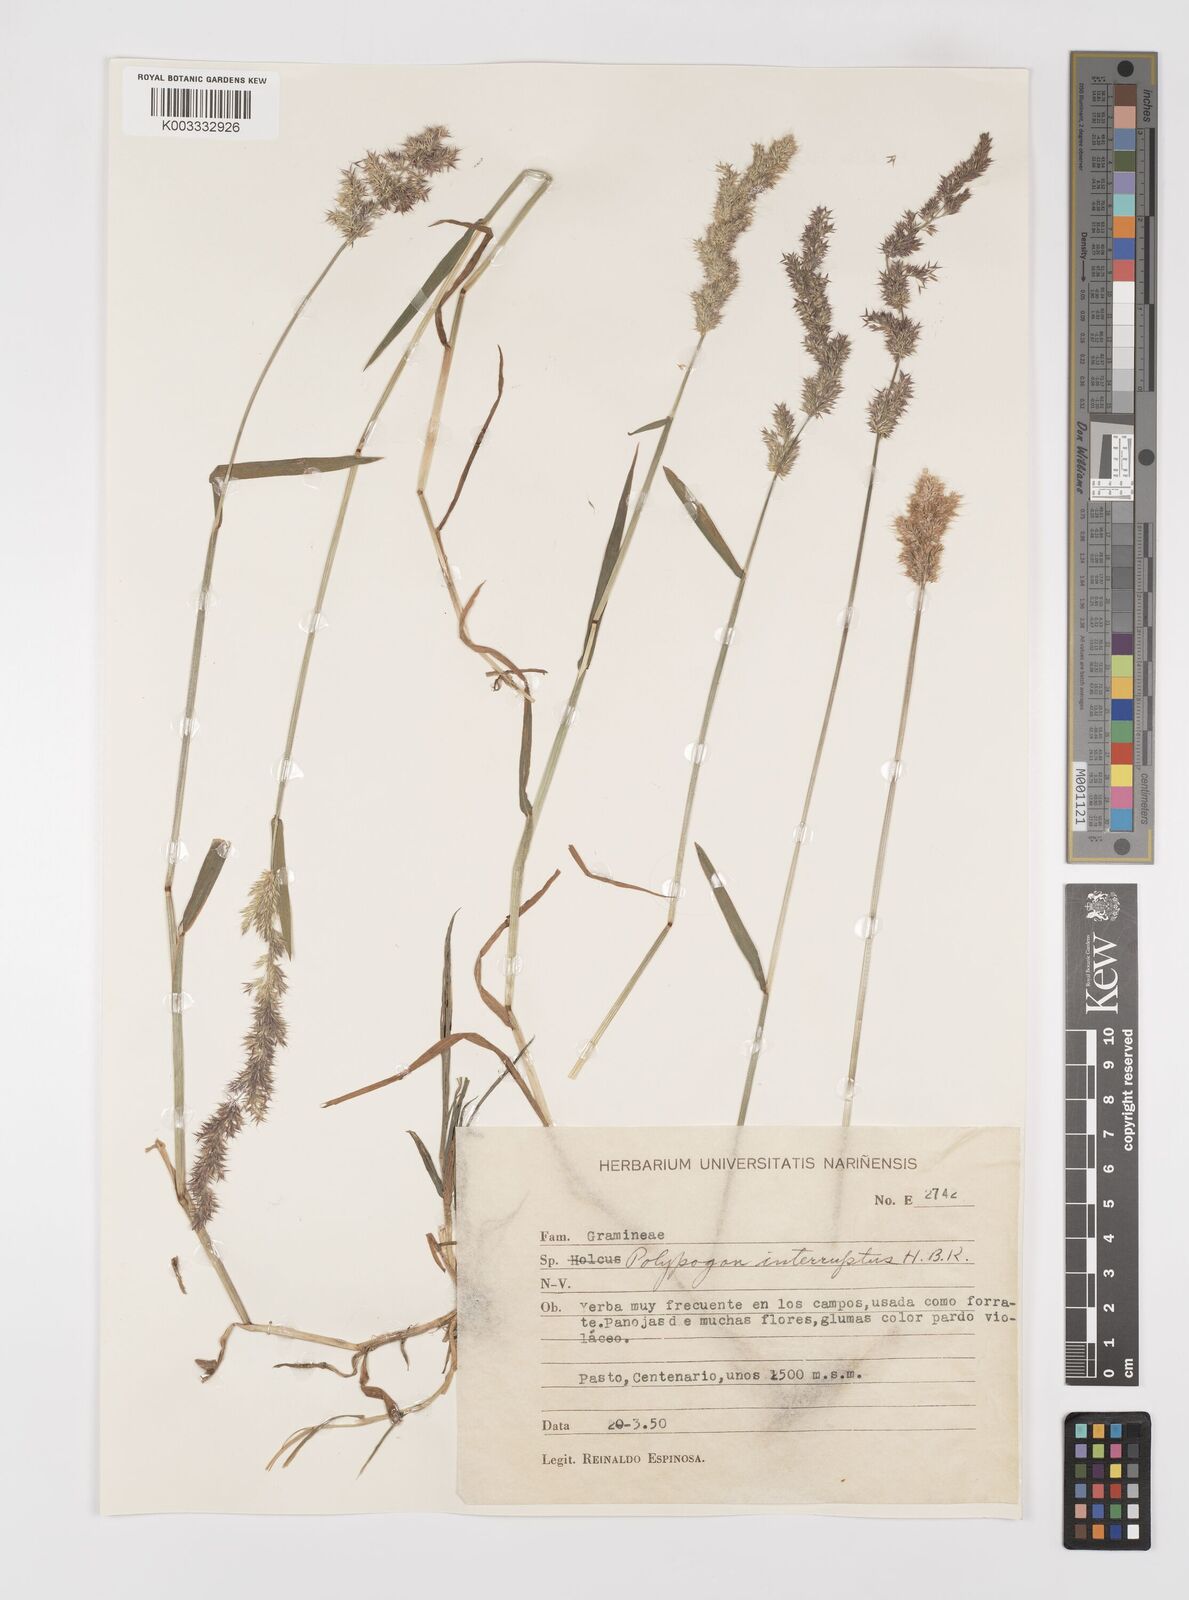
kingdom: Plantae
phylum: Tracheophyta
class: Liliopsida
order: Poales
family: Poaceae
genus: Polypogon
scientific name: Polypogon interruptus
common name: Ditch polypogon
